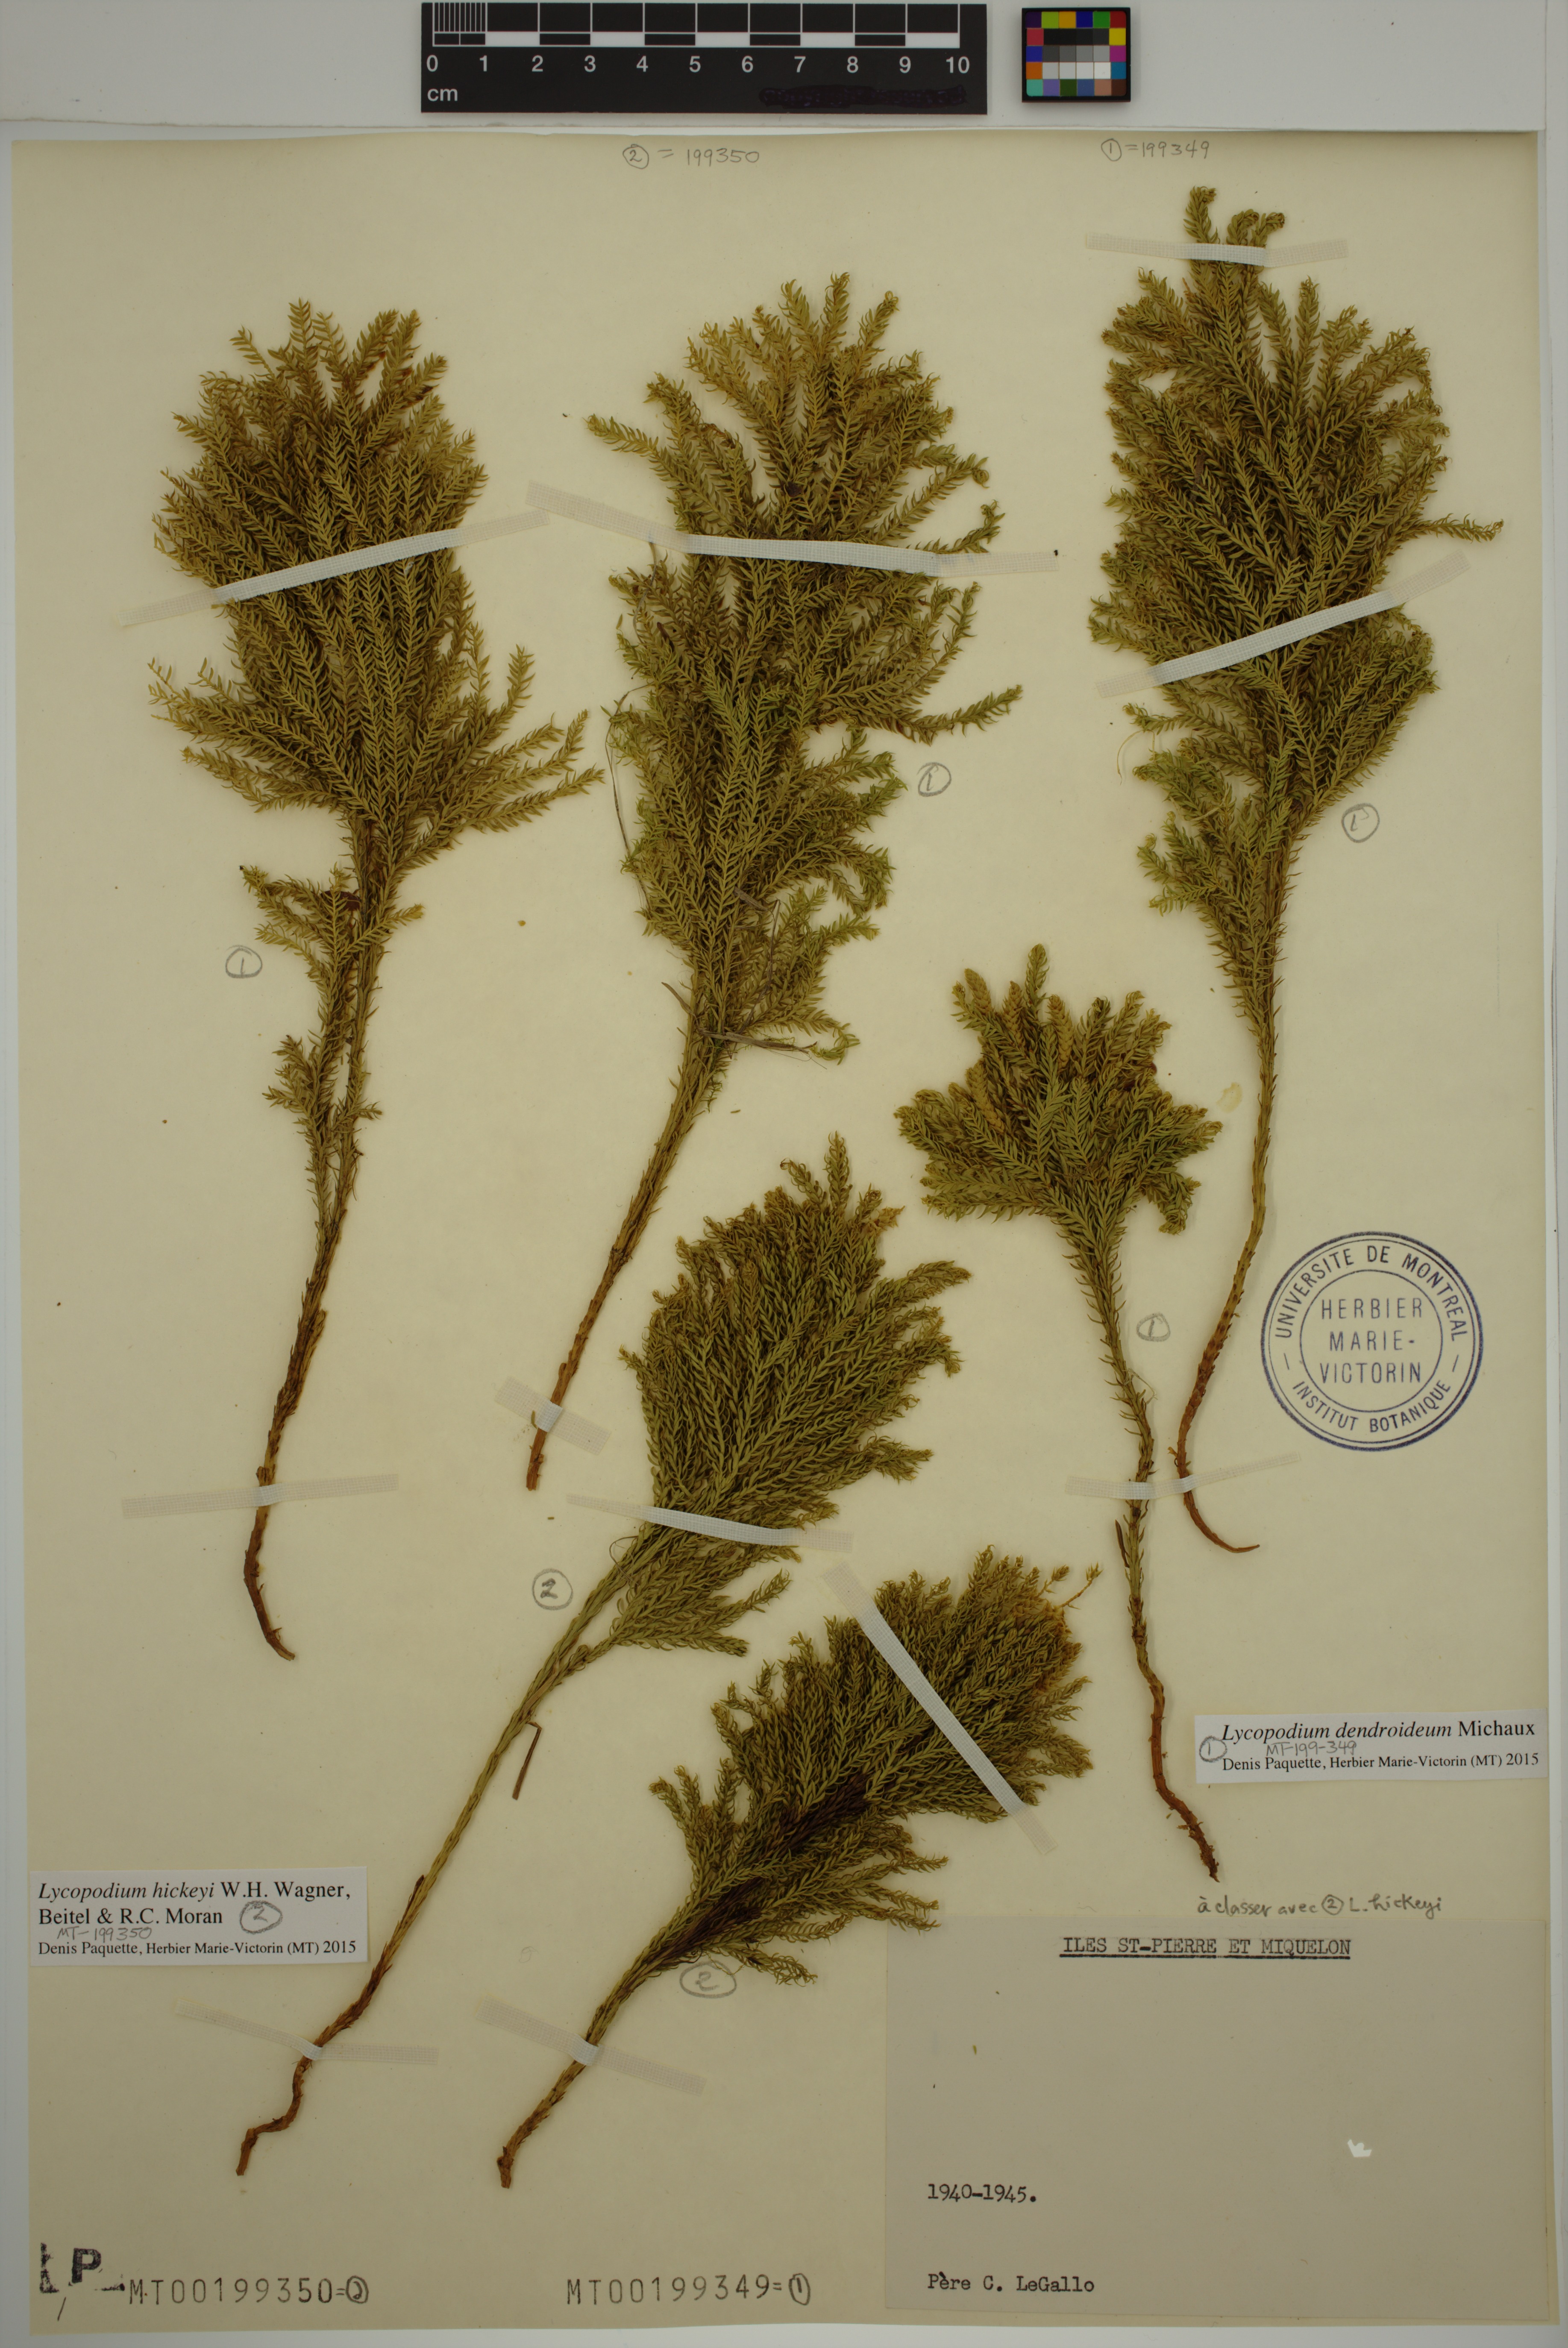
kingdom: Plantae
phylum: Tracheophyta
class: Lycopodiopsida
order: Lycopodiales
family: Lycopodiaceae
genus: Dendrolycopodium
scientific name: Dendrolycopodium dendroideum
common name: Northern tree-clubmoss
